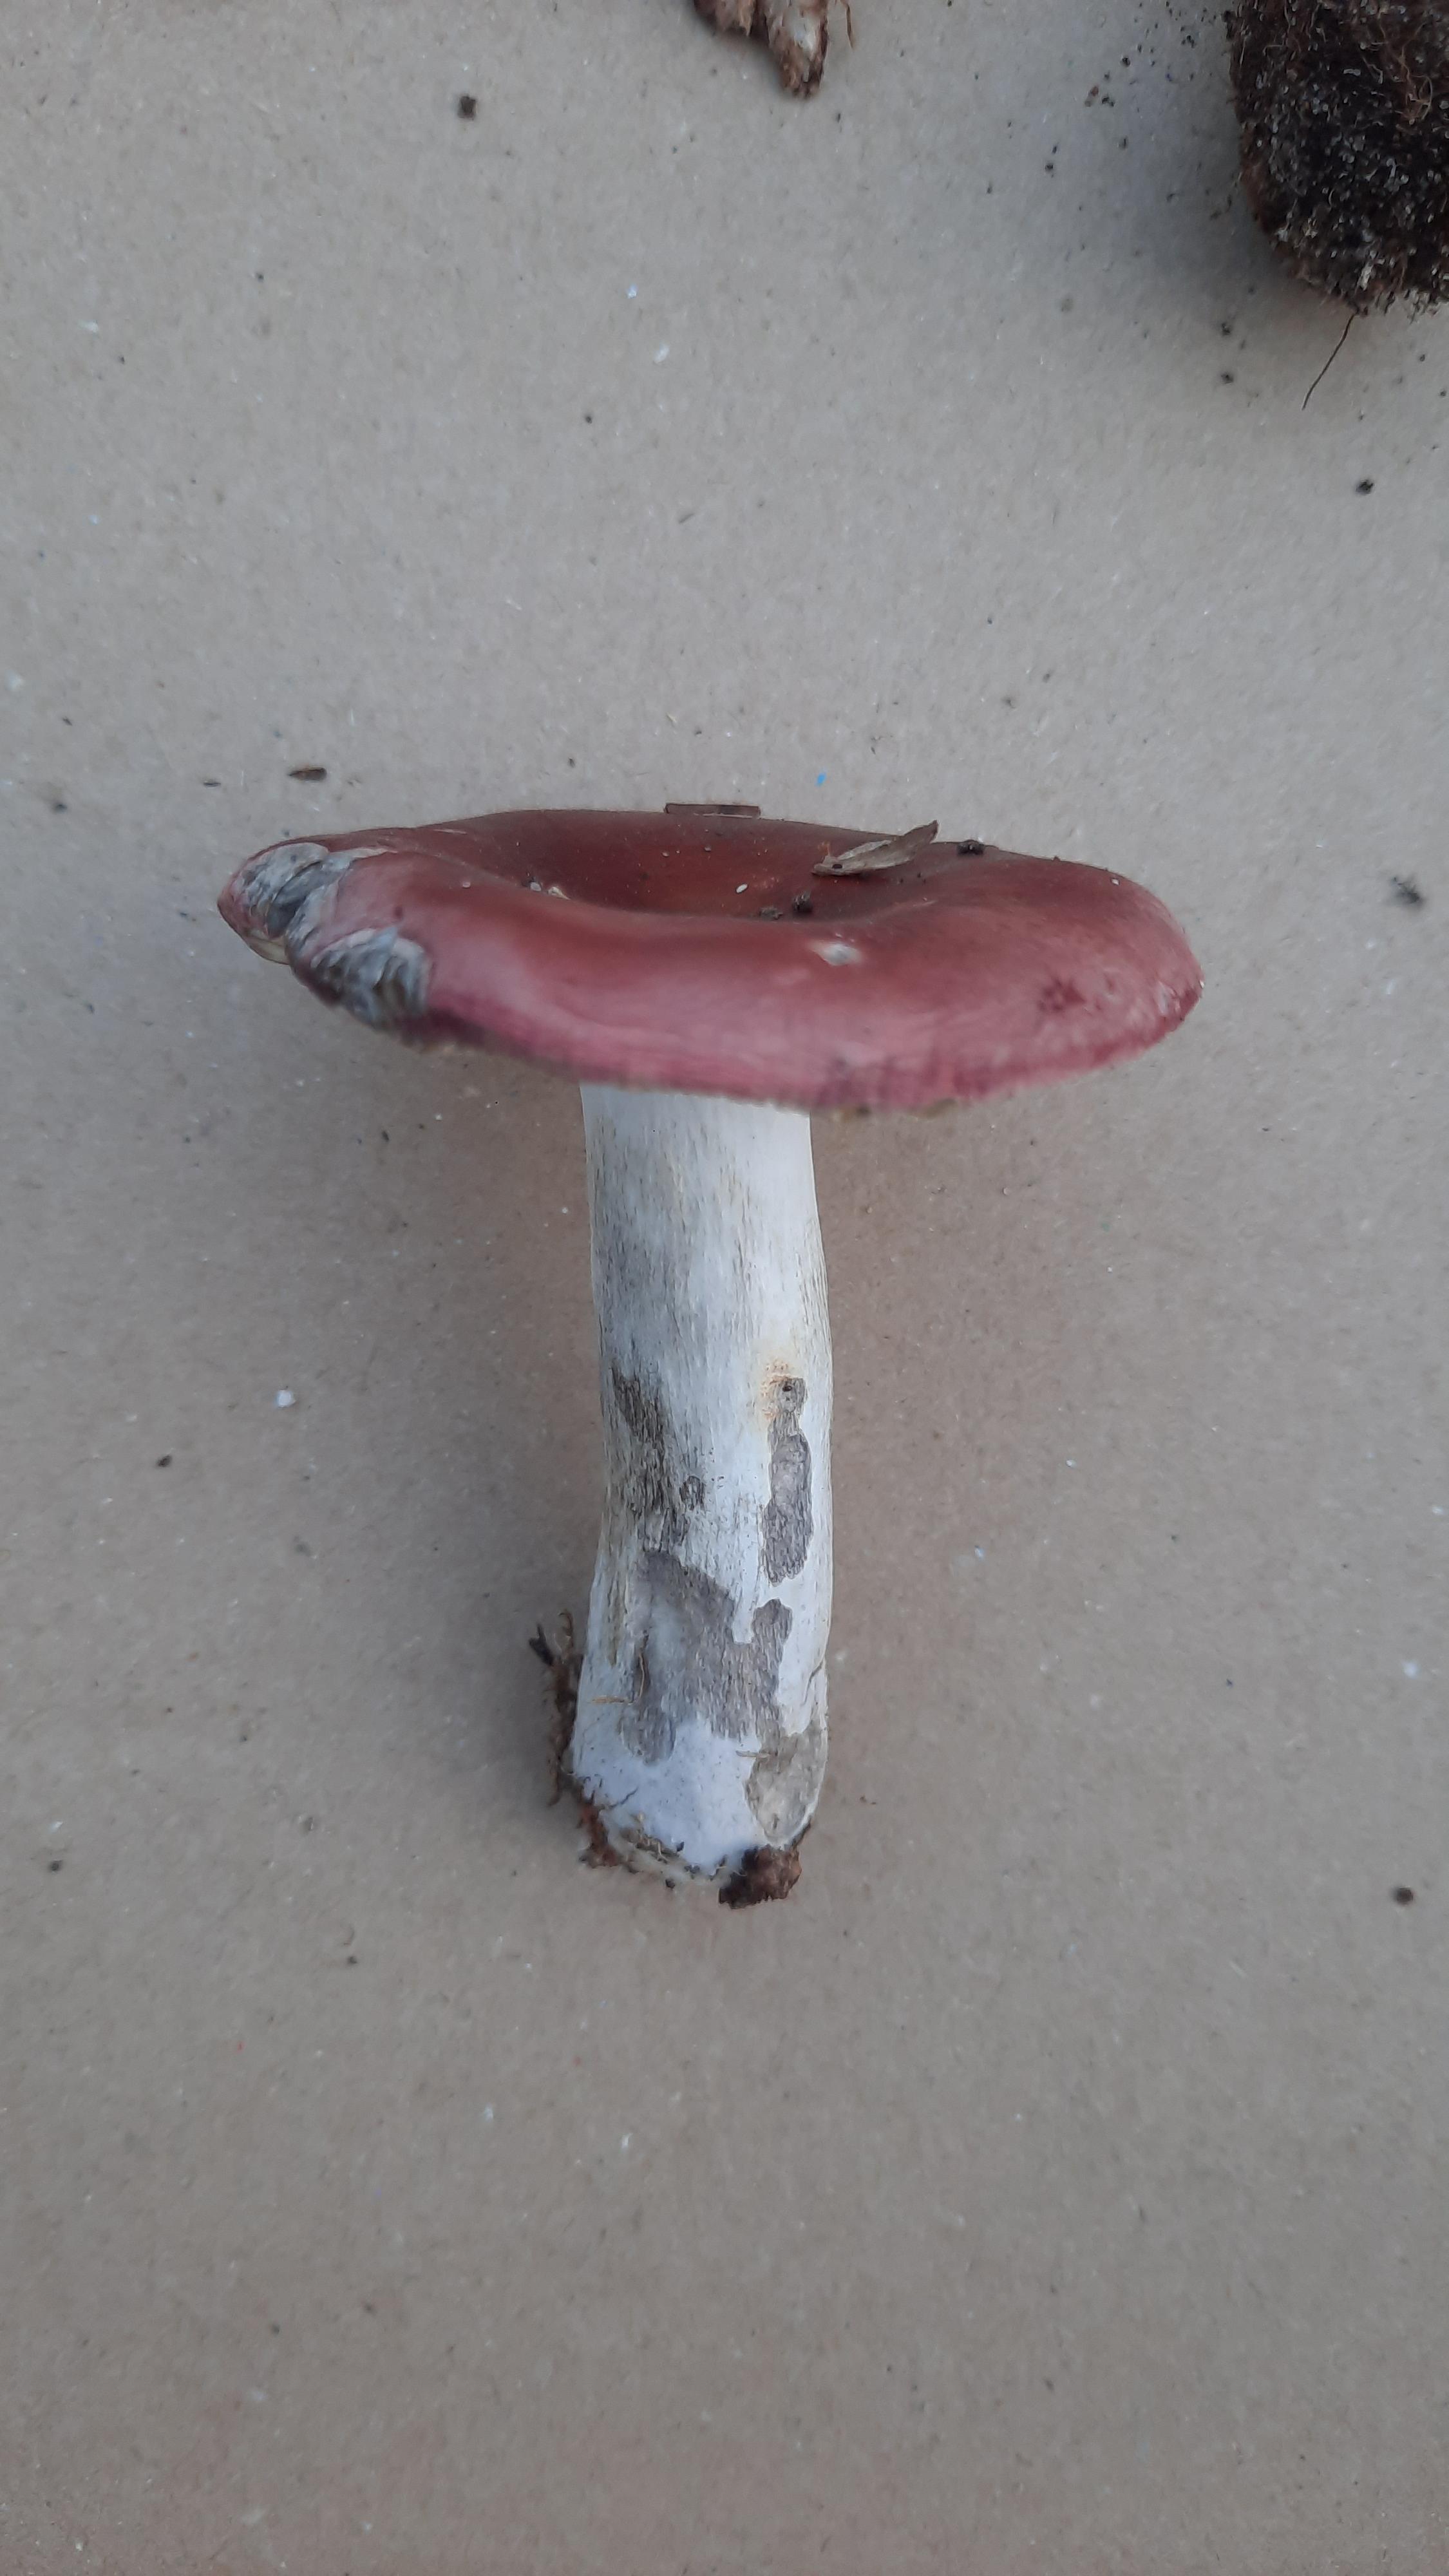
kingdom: Fungi
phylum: Basidiomycota
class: Agaricomycetes
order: Russulales
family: Russulaceae
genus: Russula
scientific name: Russula vinosa
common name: vinrød skørhat
